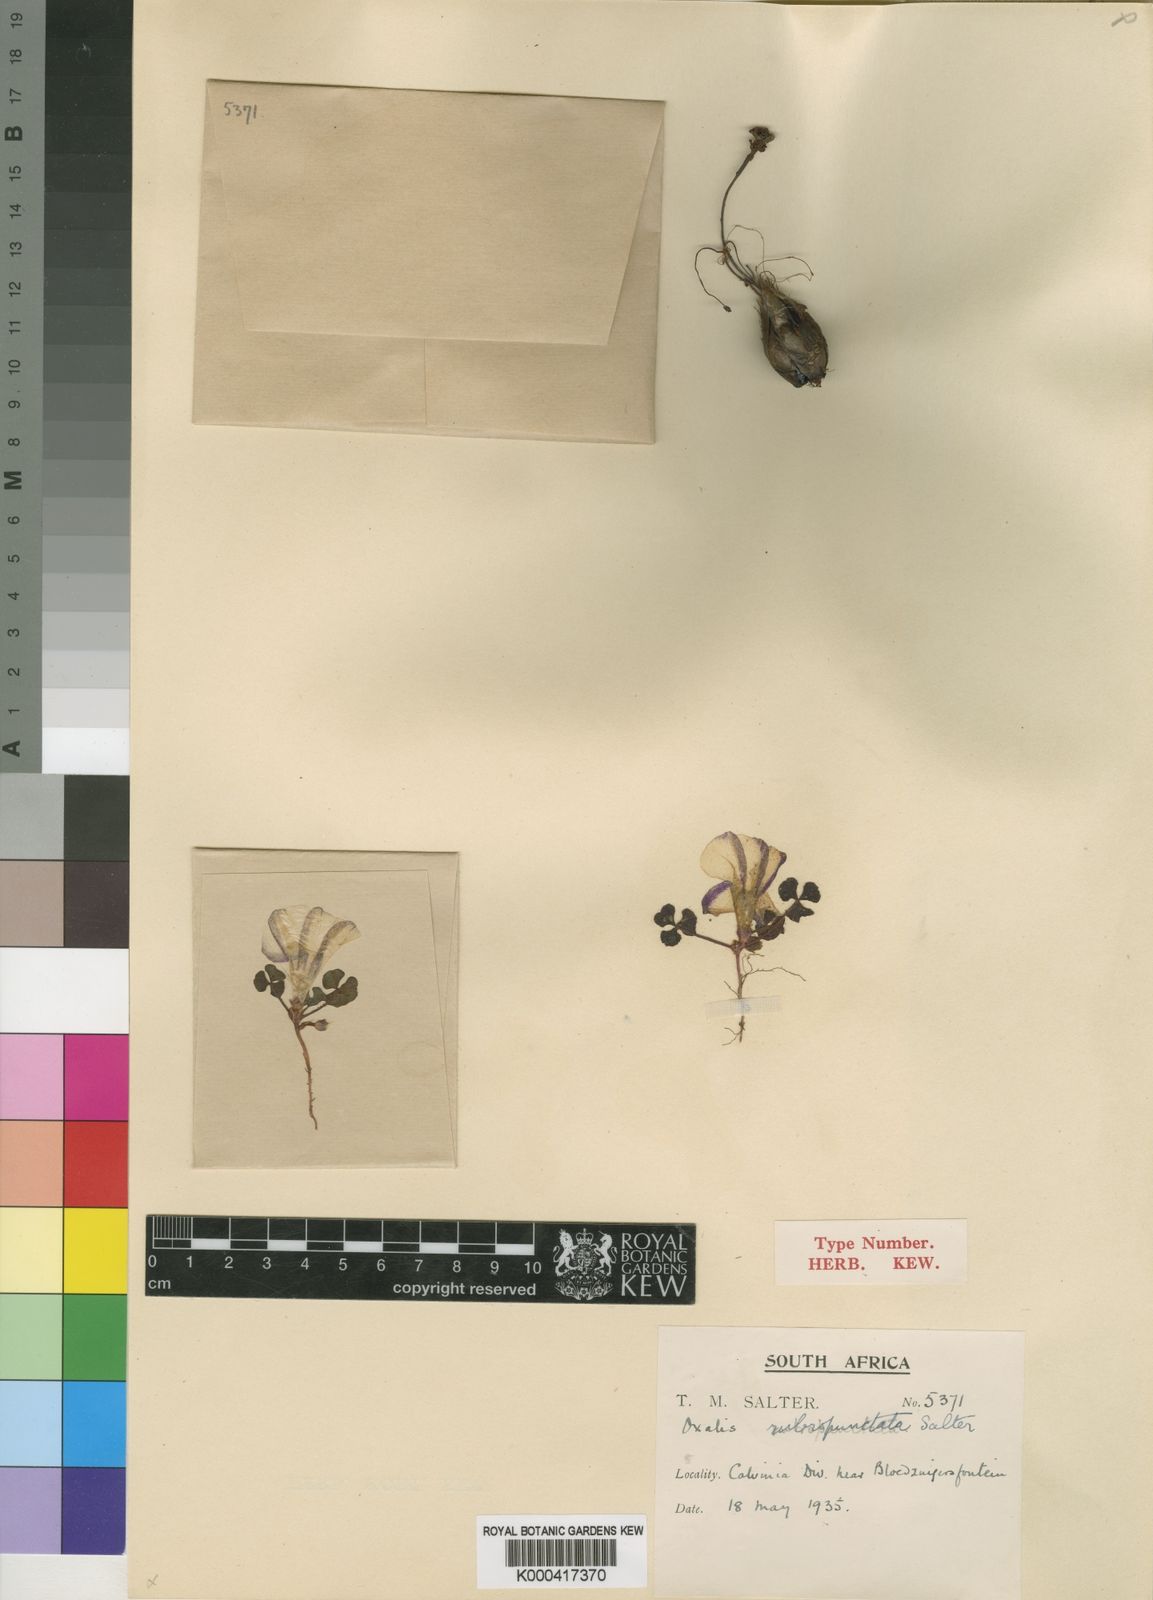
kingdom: Plantae
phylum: Tracheophyta
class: Magnoliopsida
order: Oxalidales
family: Oxalidaceae
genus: Oxalis
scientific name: Oxalis rubropunctata
